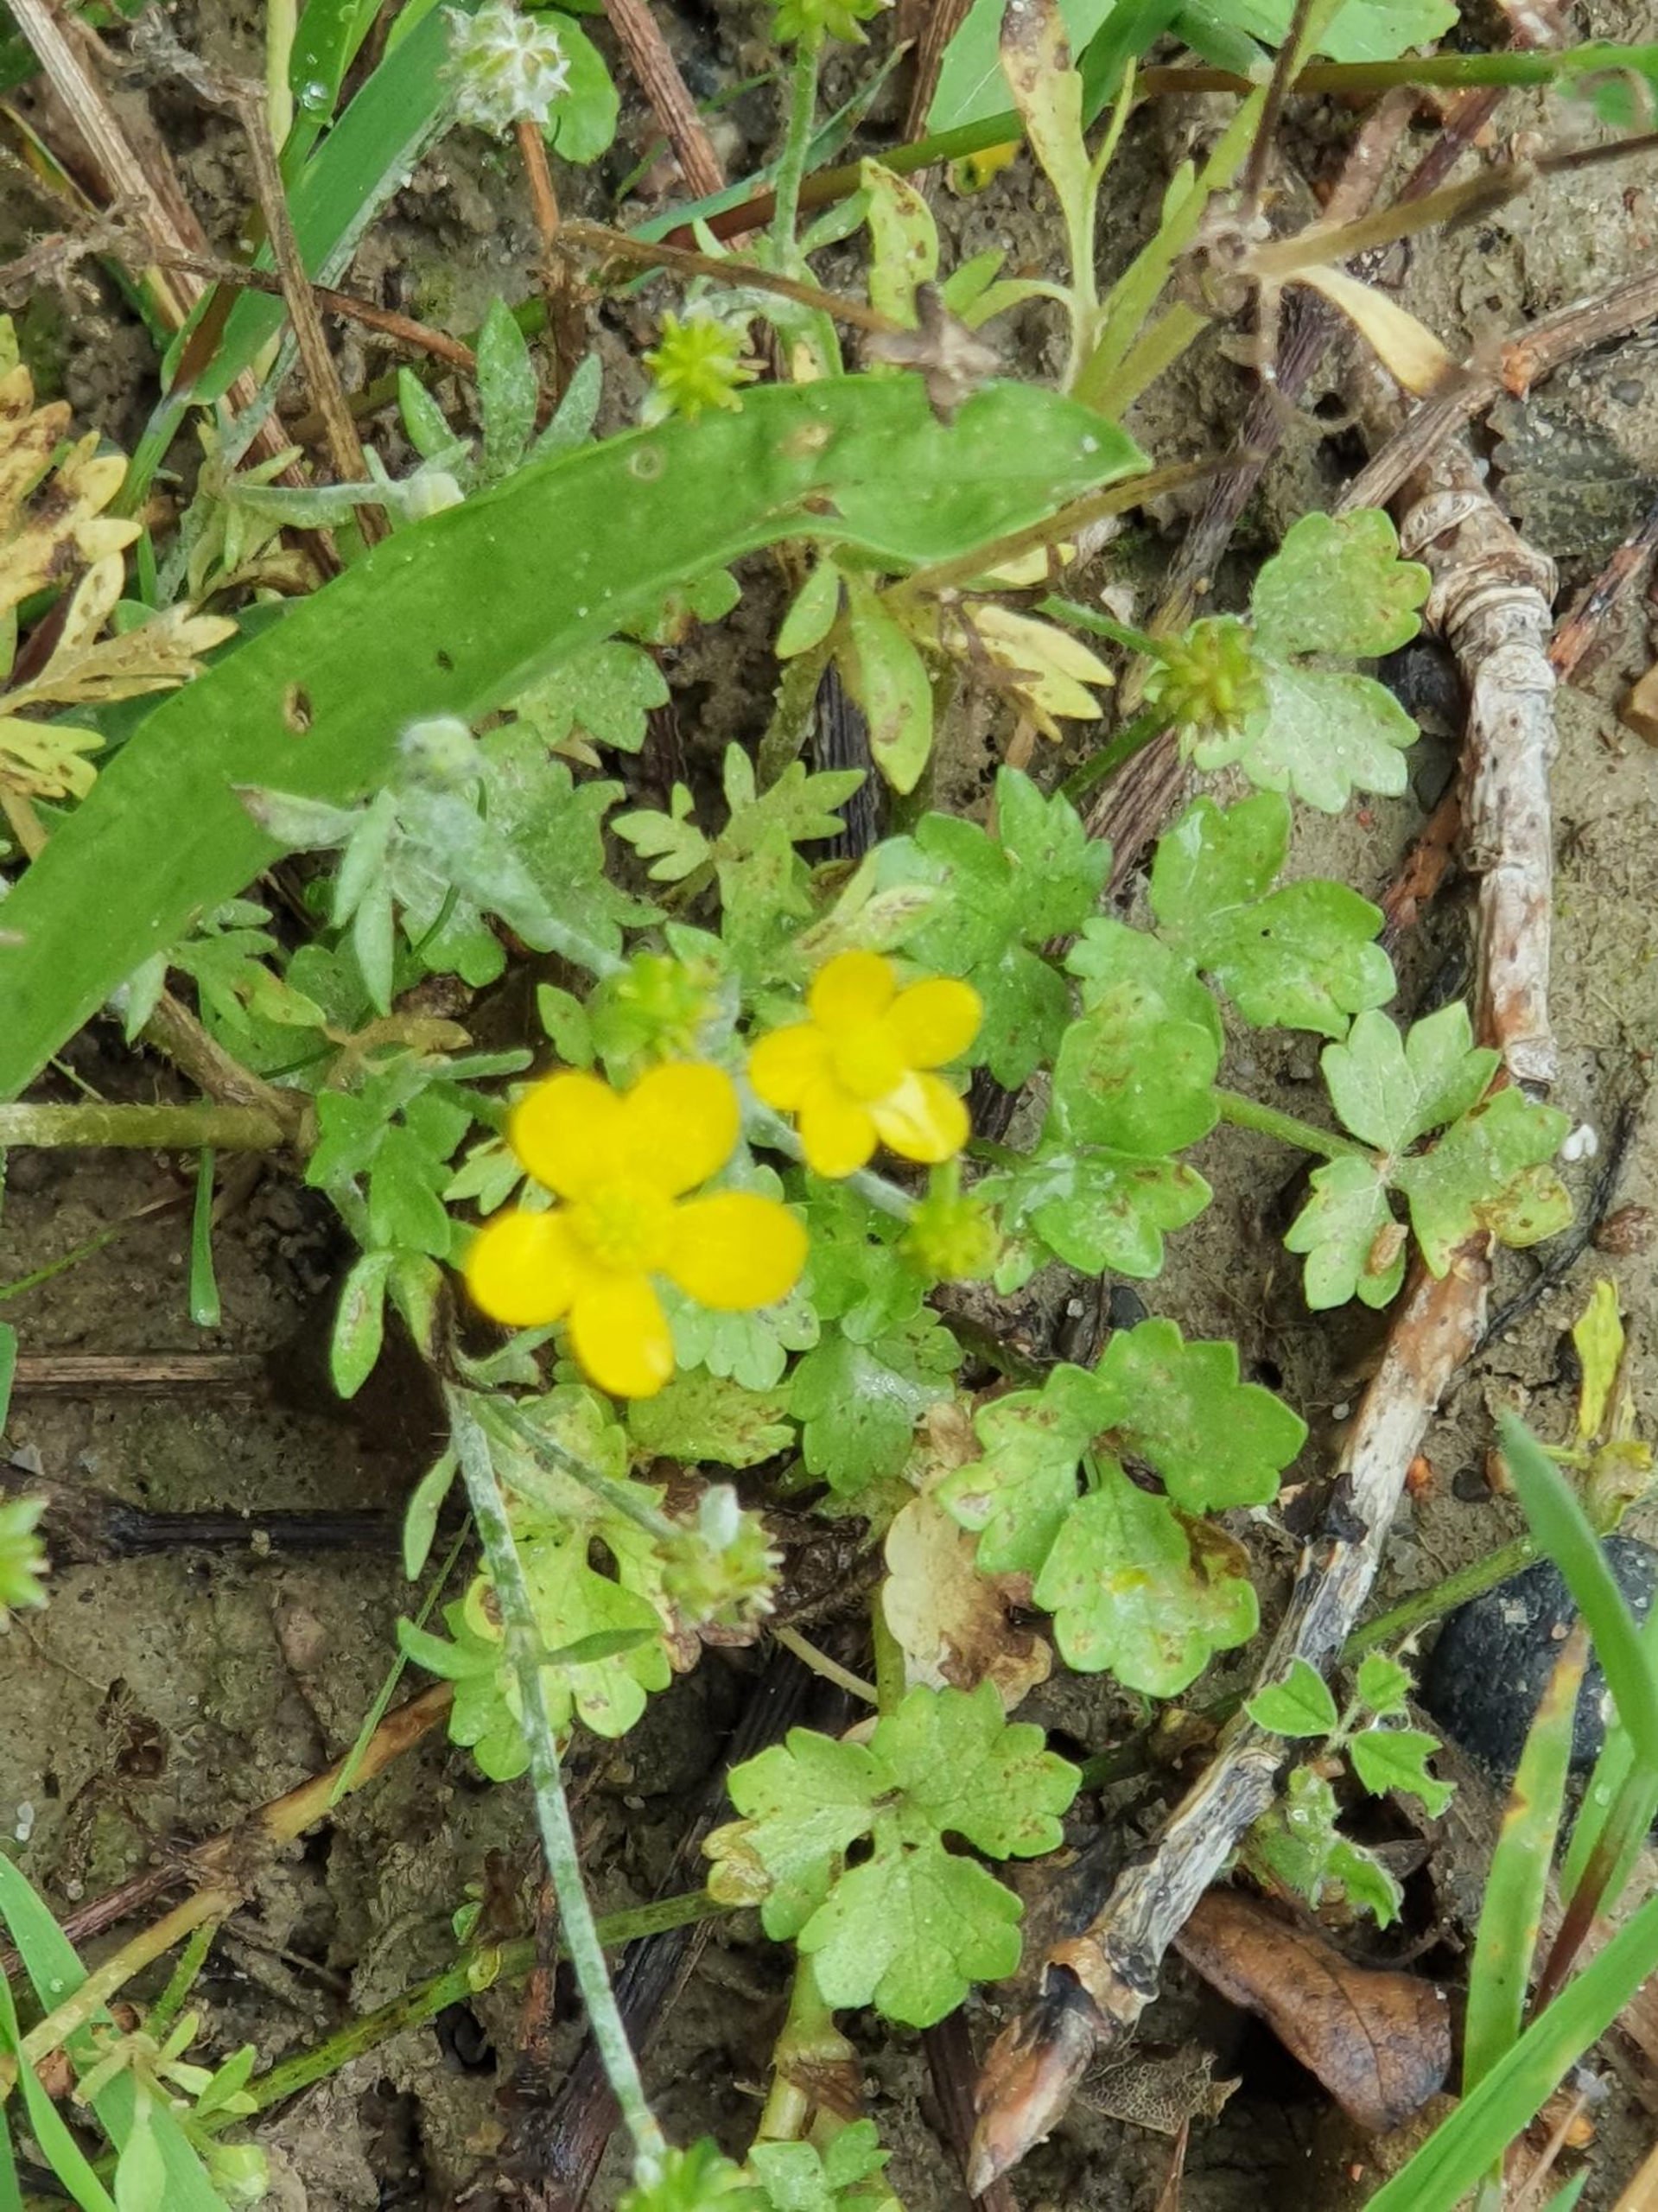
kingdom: Plantae
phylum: Tracheophyta
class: Magnoliopsida
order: Ranunculales
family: Ranunculaceae
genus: Ranunculus
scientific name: Ranunculus sardous
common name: Stivhåret ranunkel
